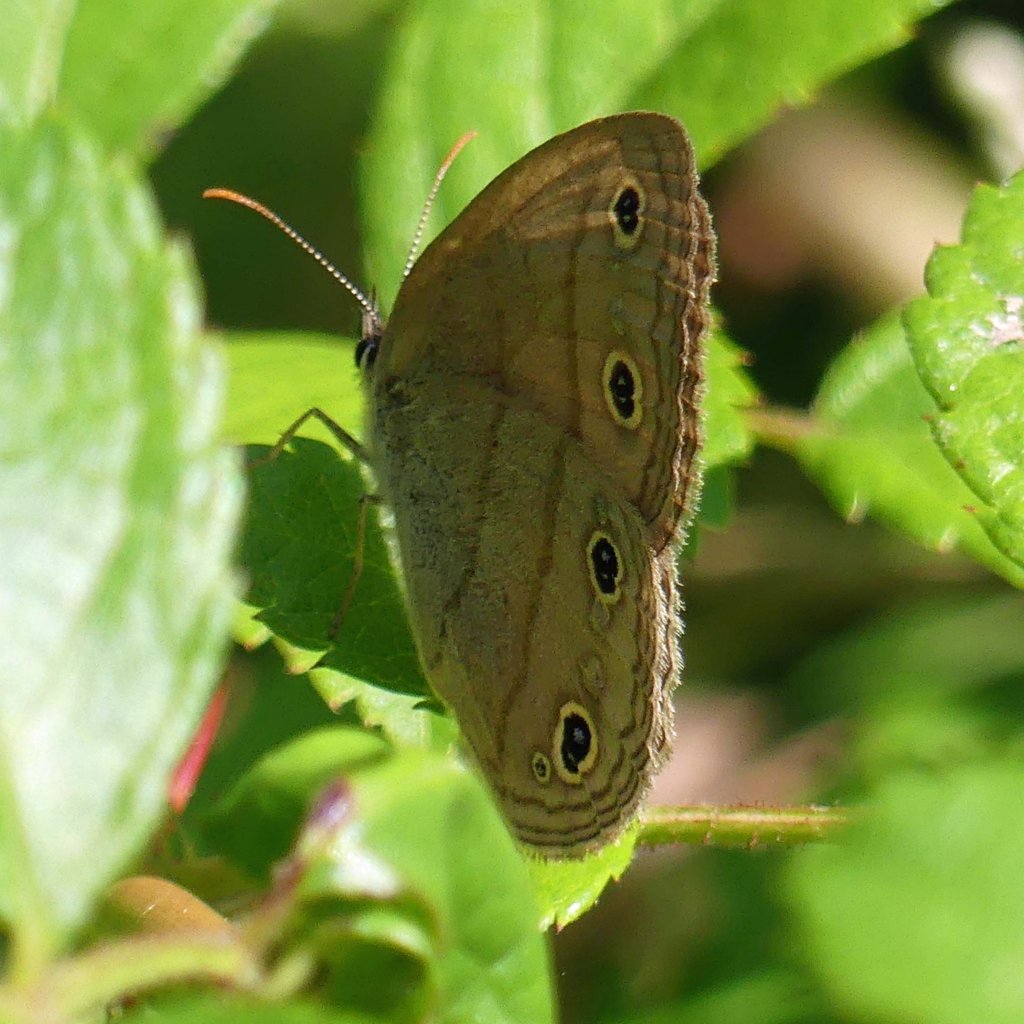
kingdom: Animalia
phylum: Arthropoda
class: Insecta
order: Lepidoptera
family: Nymphalidae
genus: Euptychia
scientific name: Euptychia cymela
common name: Little Wood Satyr
